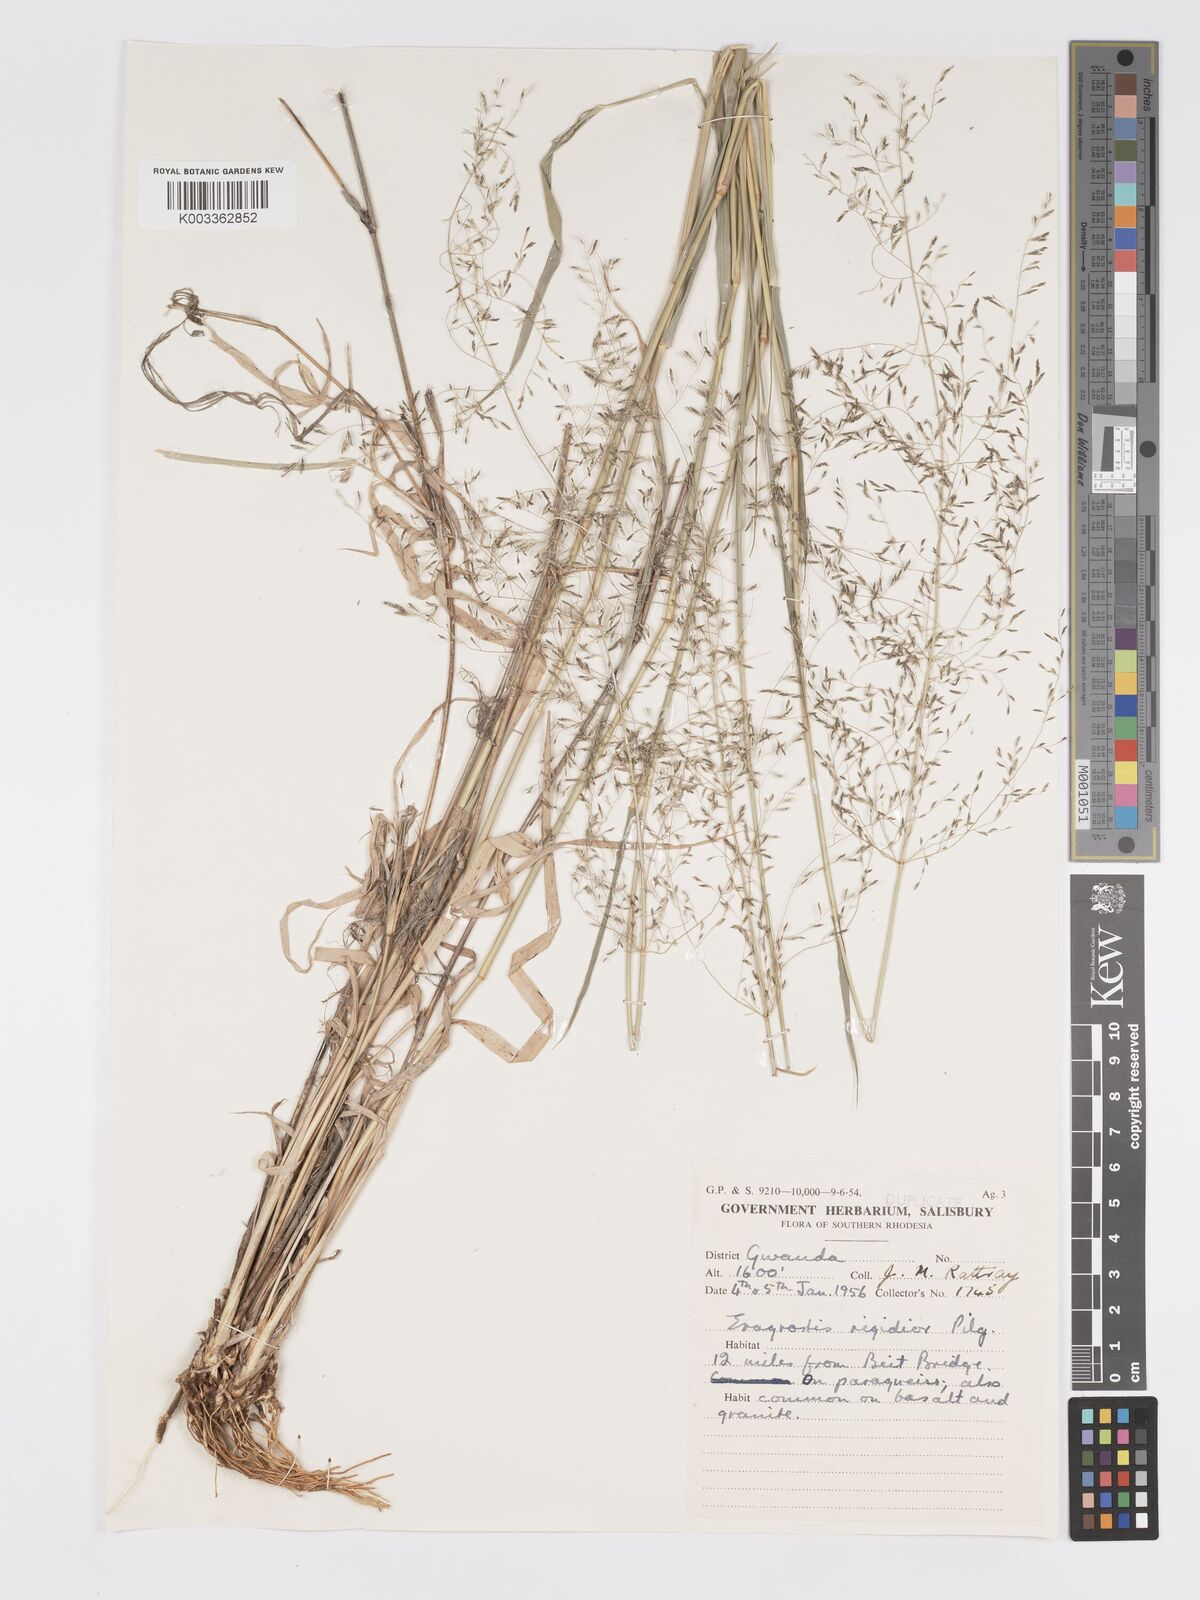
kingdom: Plantae
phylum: Tracheophyta
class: Liliopsida
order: Poales
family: Poaceae
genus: Eragrostis
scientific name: Eragrostis cylindriflora
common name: Cylinderflower lovegrass
